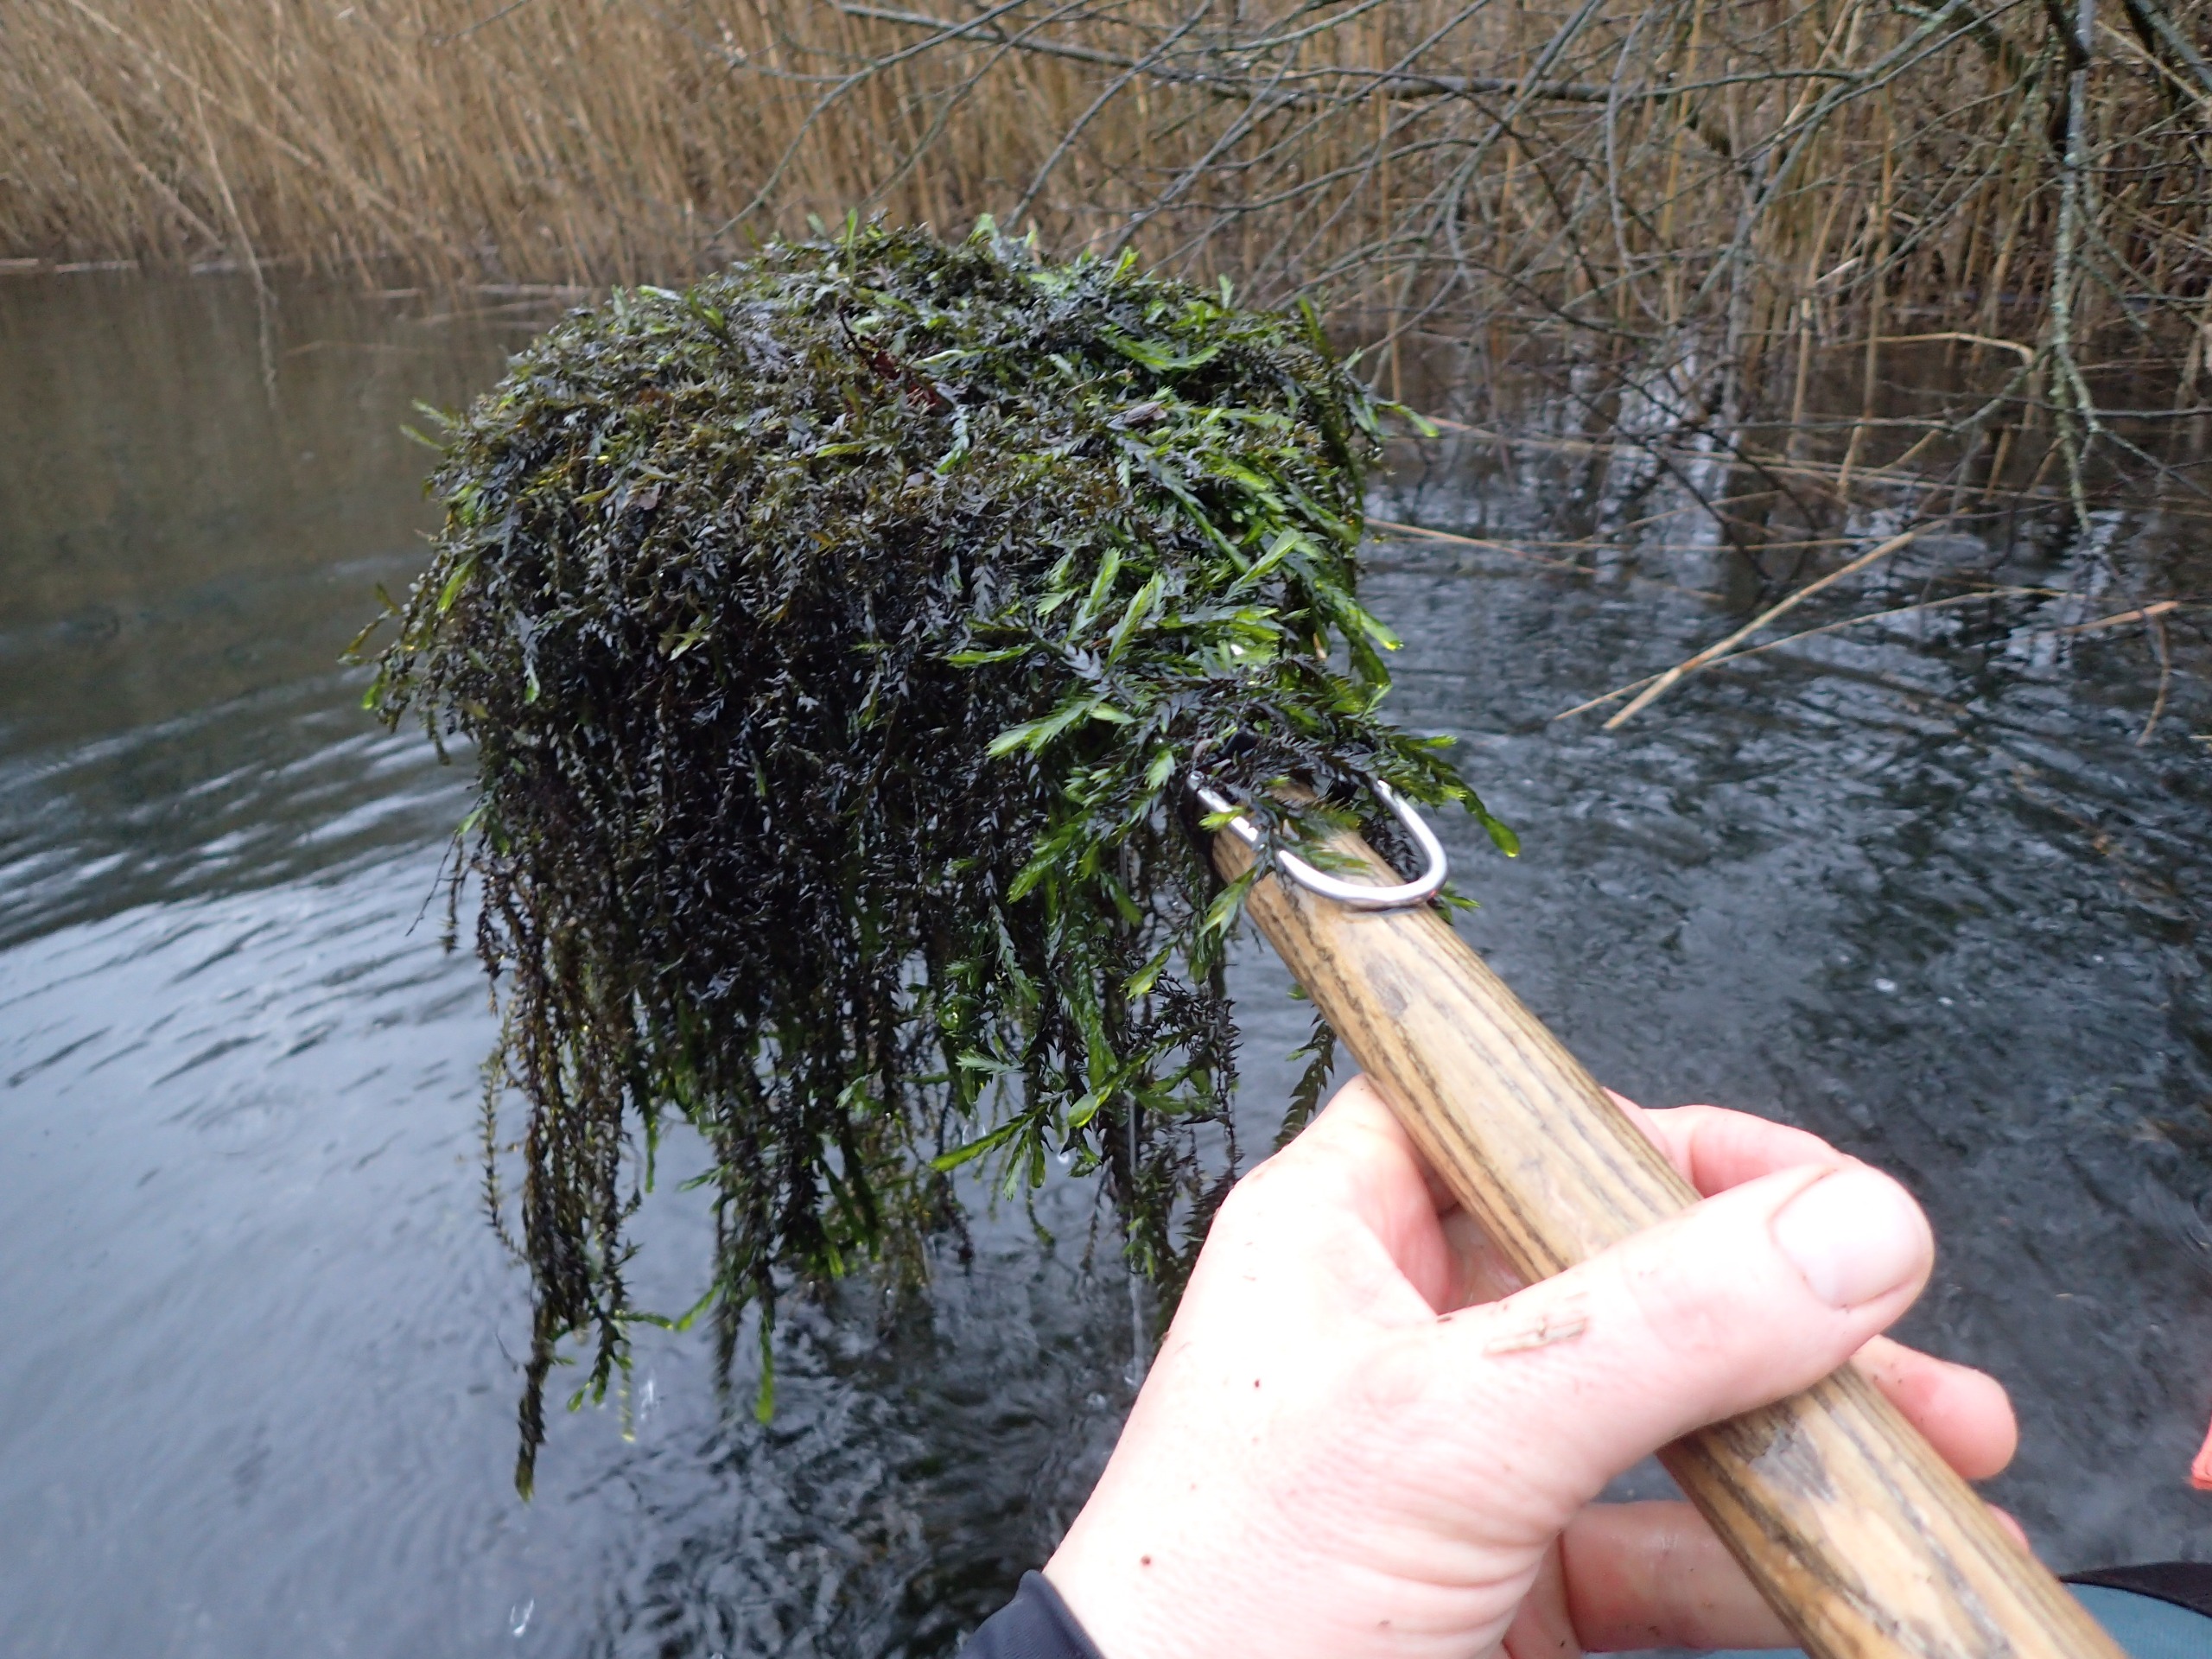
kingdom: Plantae
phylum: Bryophyta
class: Bryopsida
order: Hypnales
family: Fontinalaceae
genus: Fontinalis
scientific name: Fontinalis antipyretica
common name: Stor kildemos
